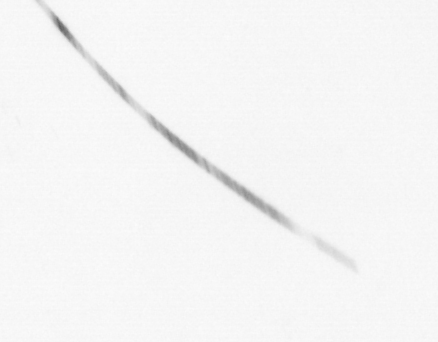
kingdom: Chromista
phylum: Ochrophyta
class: Bacillariophyceae
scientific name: Bacillariophyceae
